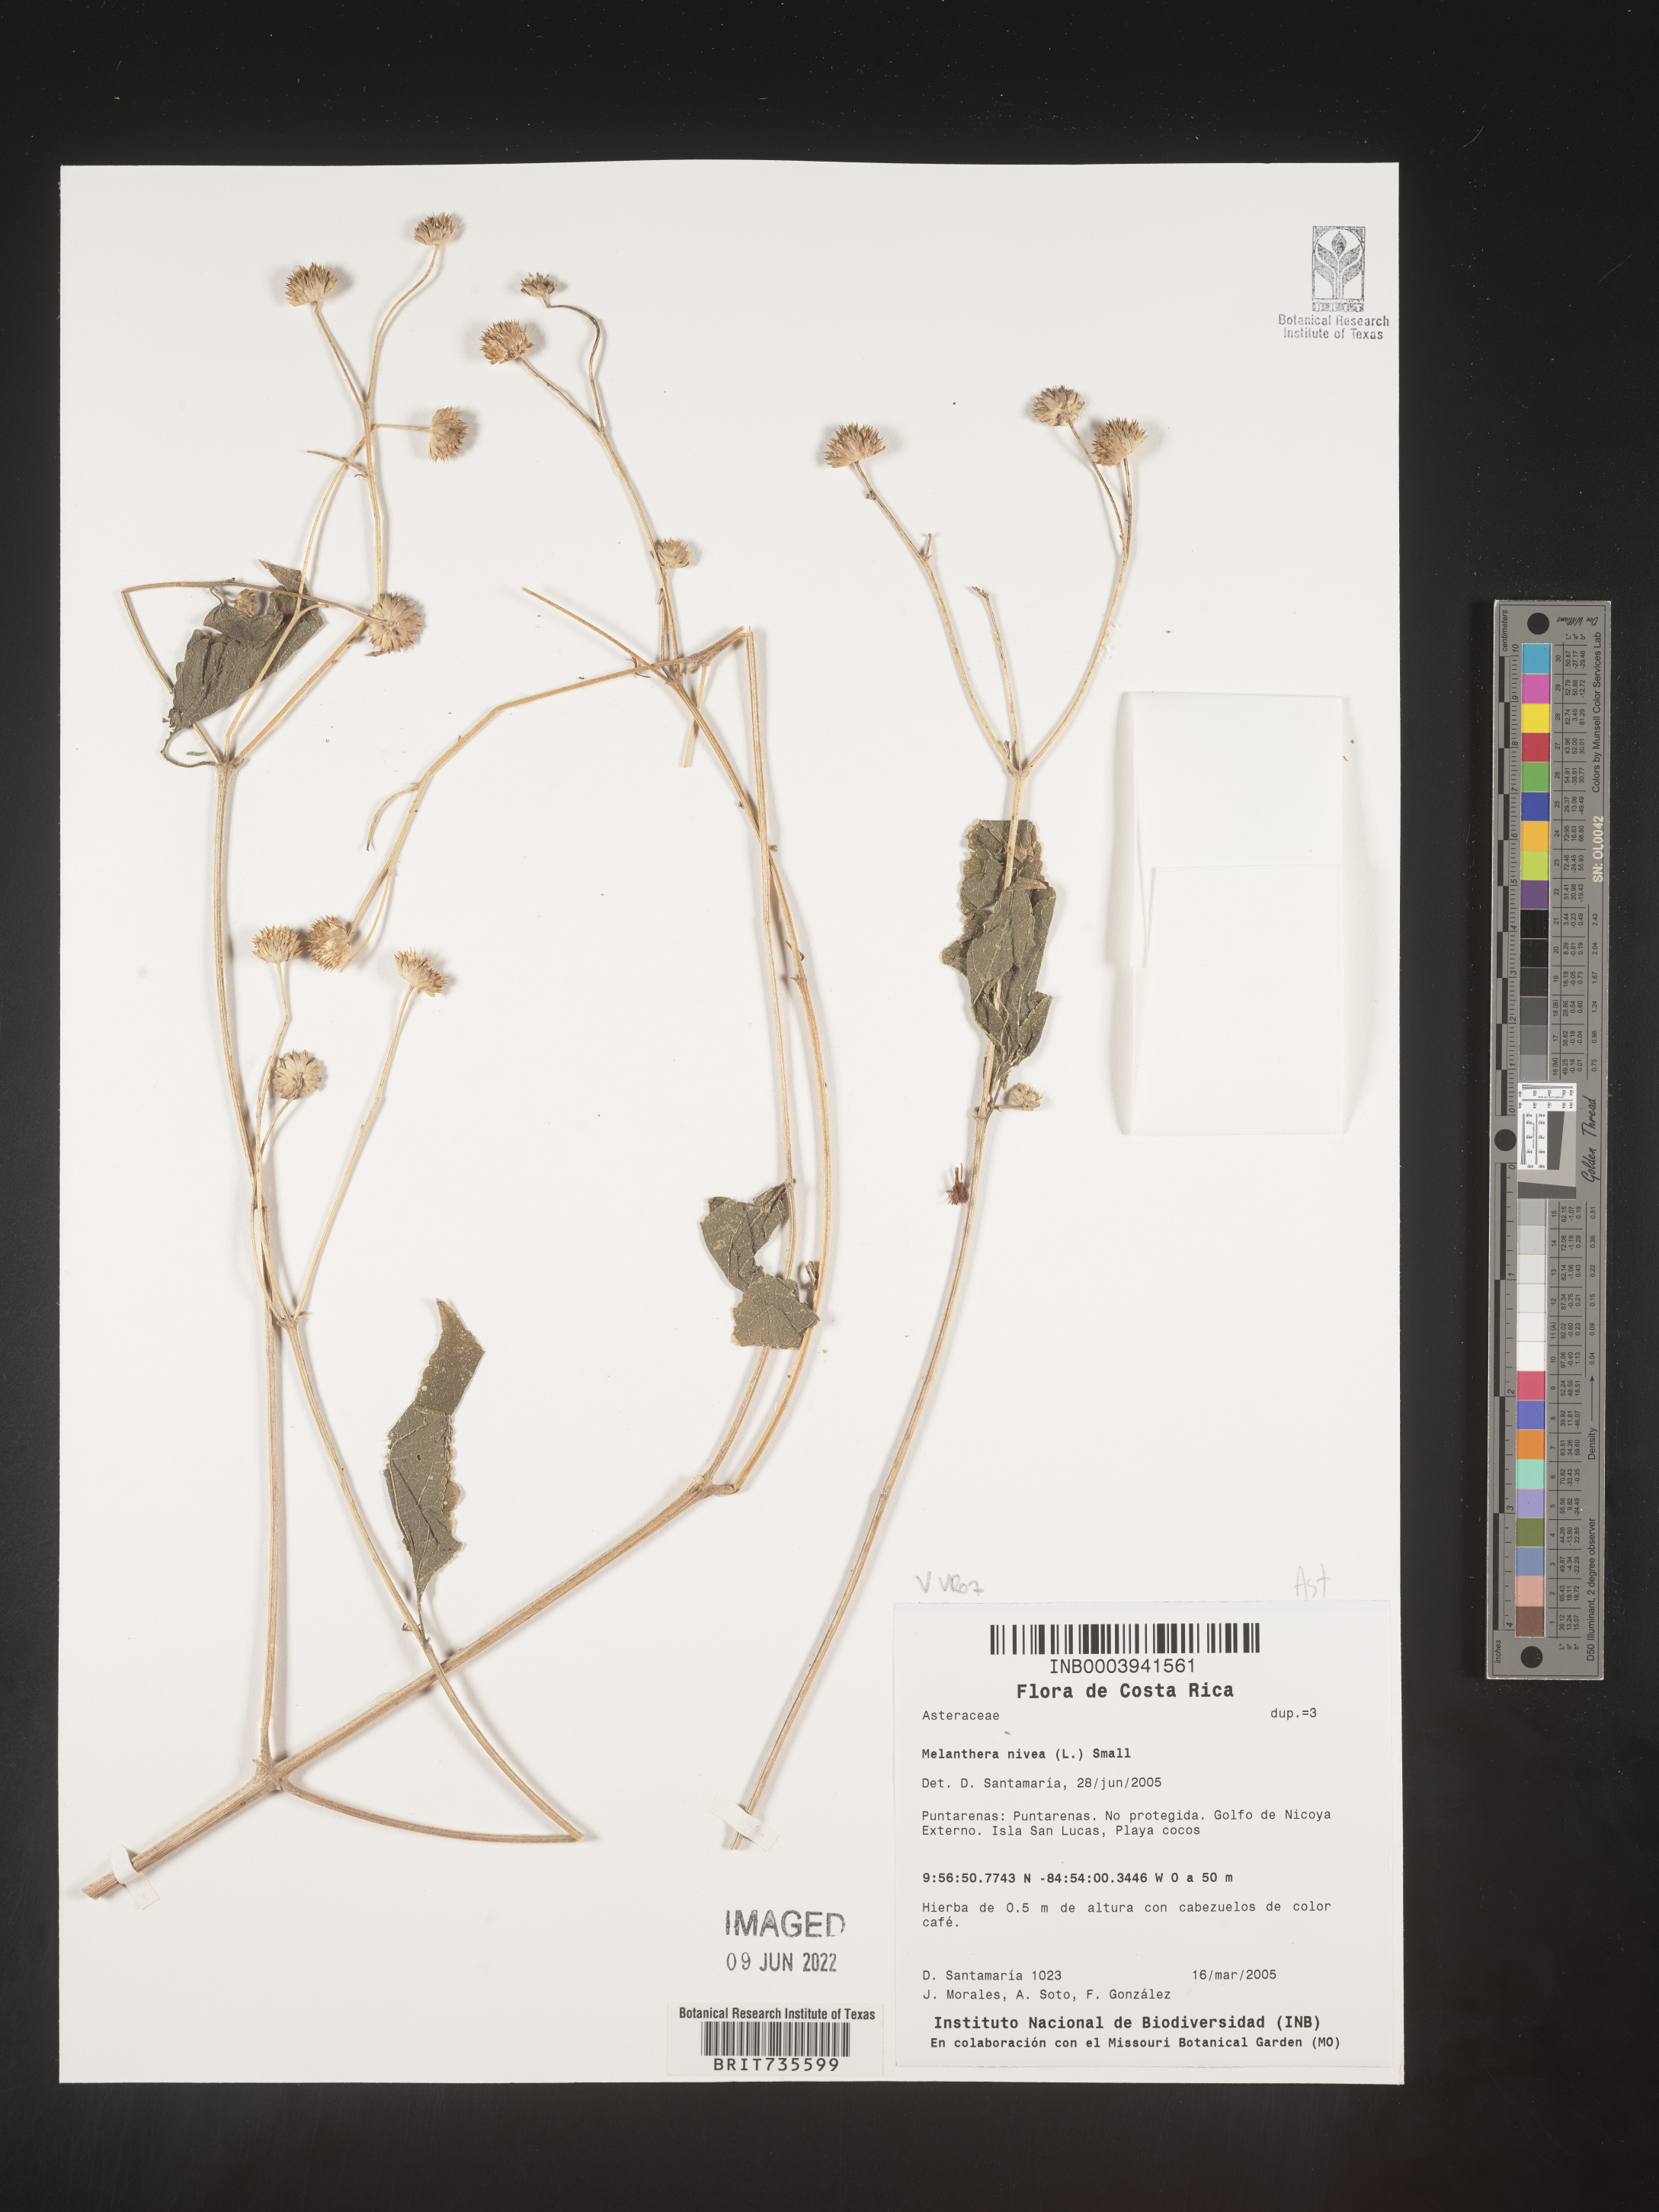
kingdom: Plantae
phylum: Tracheophyta
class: Magnoliopsida
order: Asterales
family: Asteraceae
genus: Melanthera
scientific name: Melanthera
